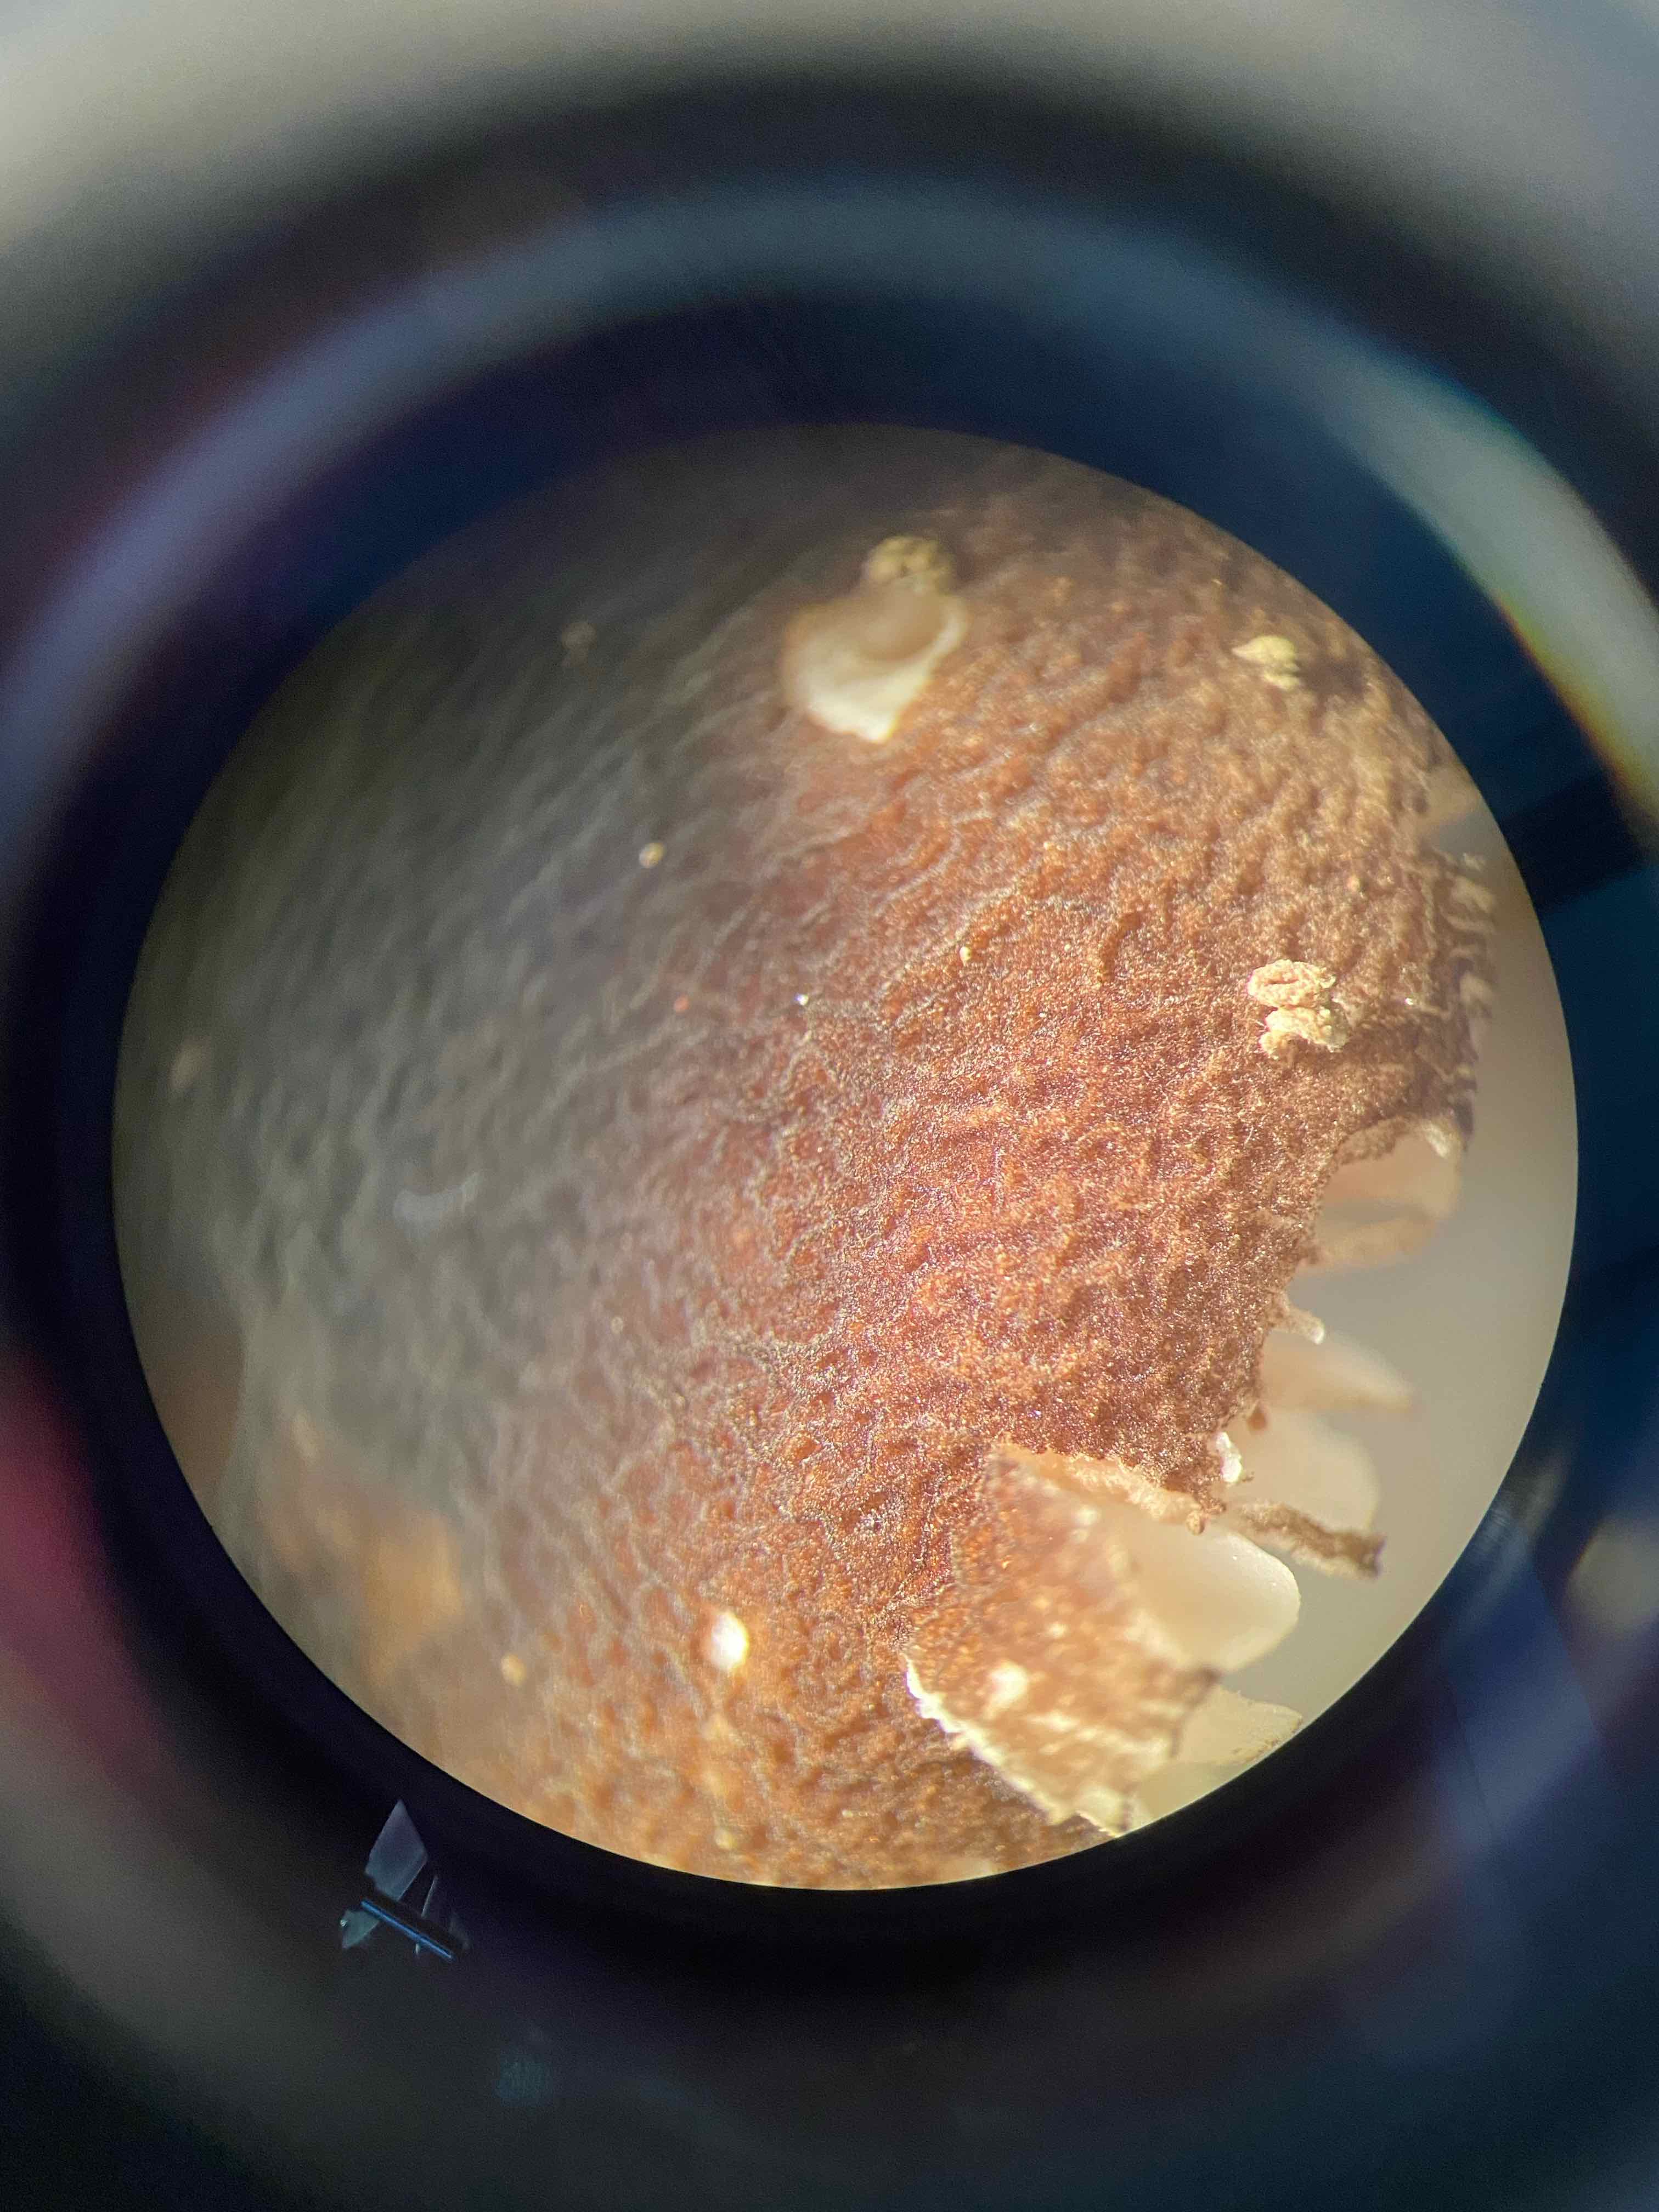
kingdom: Fungi
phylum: Basidiomycota
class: Agaricomycetes
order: Agaricales
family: Pluteaceae
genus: Pluteus
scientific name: Pluteus
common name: pudret skærmhat
